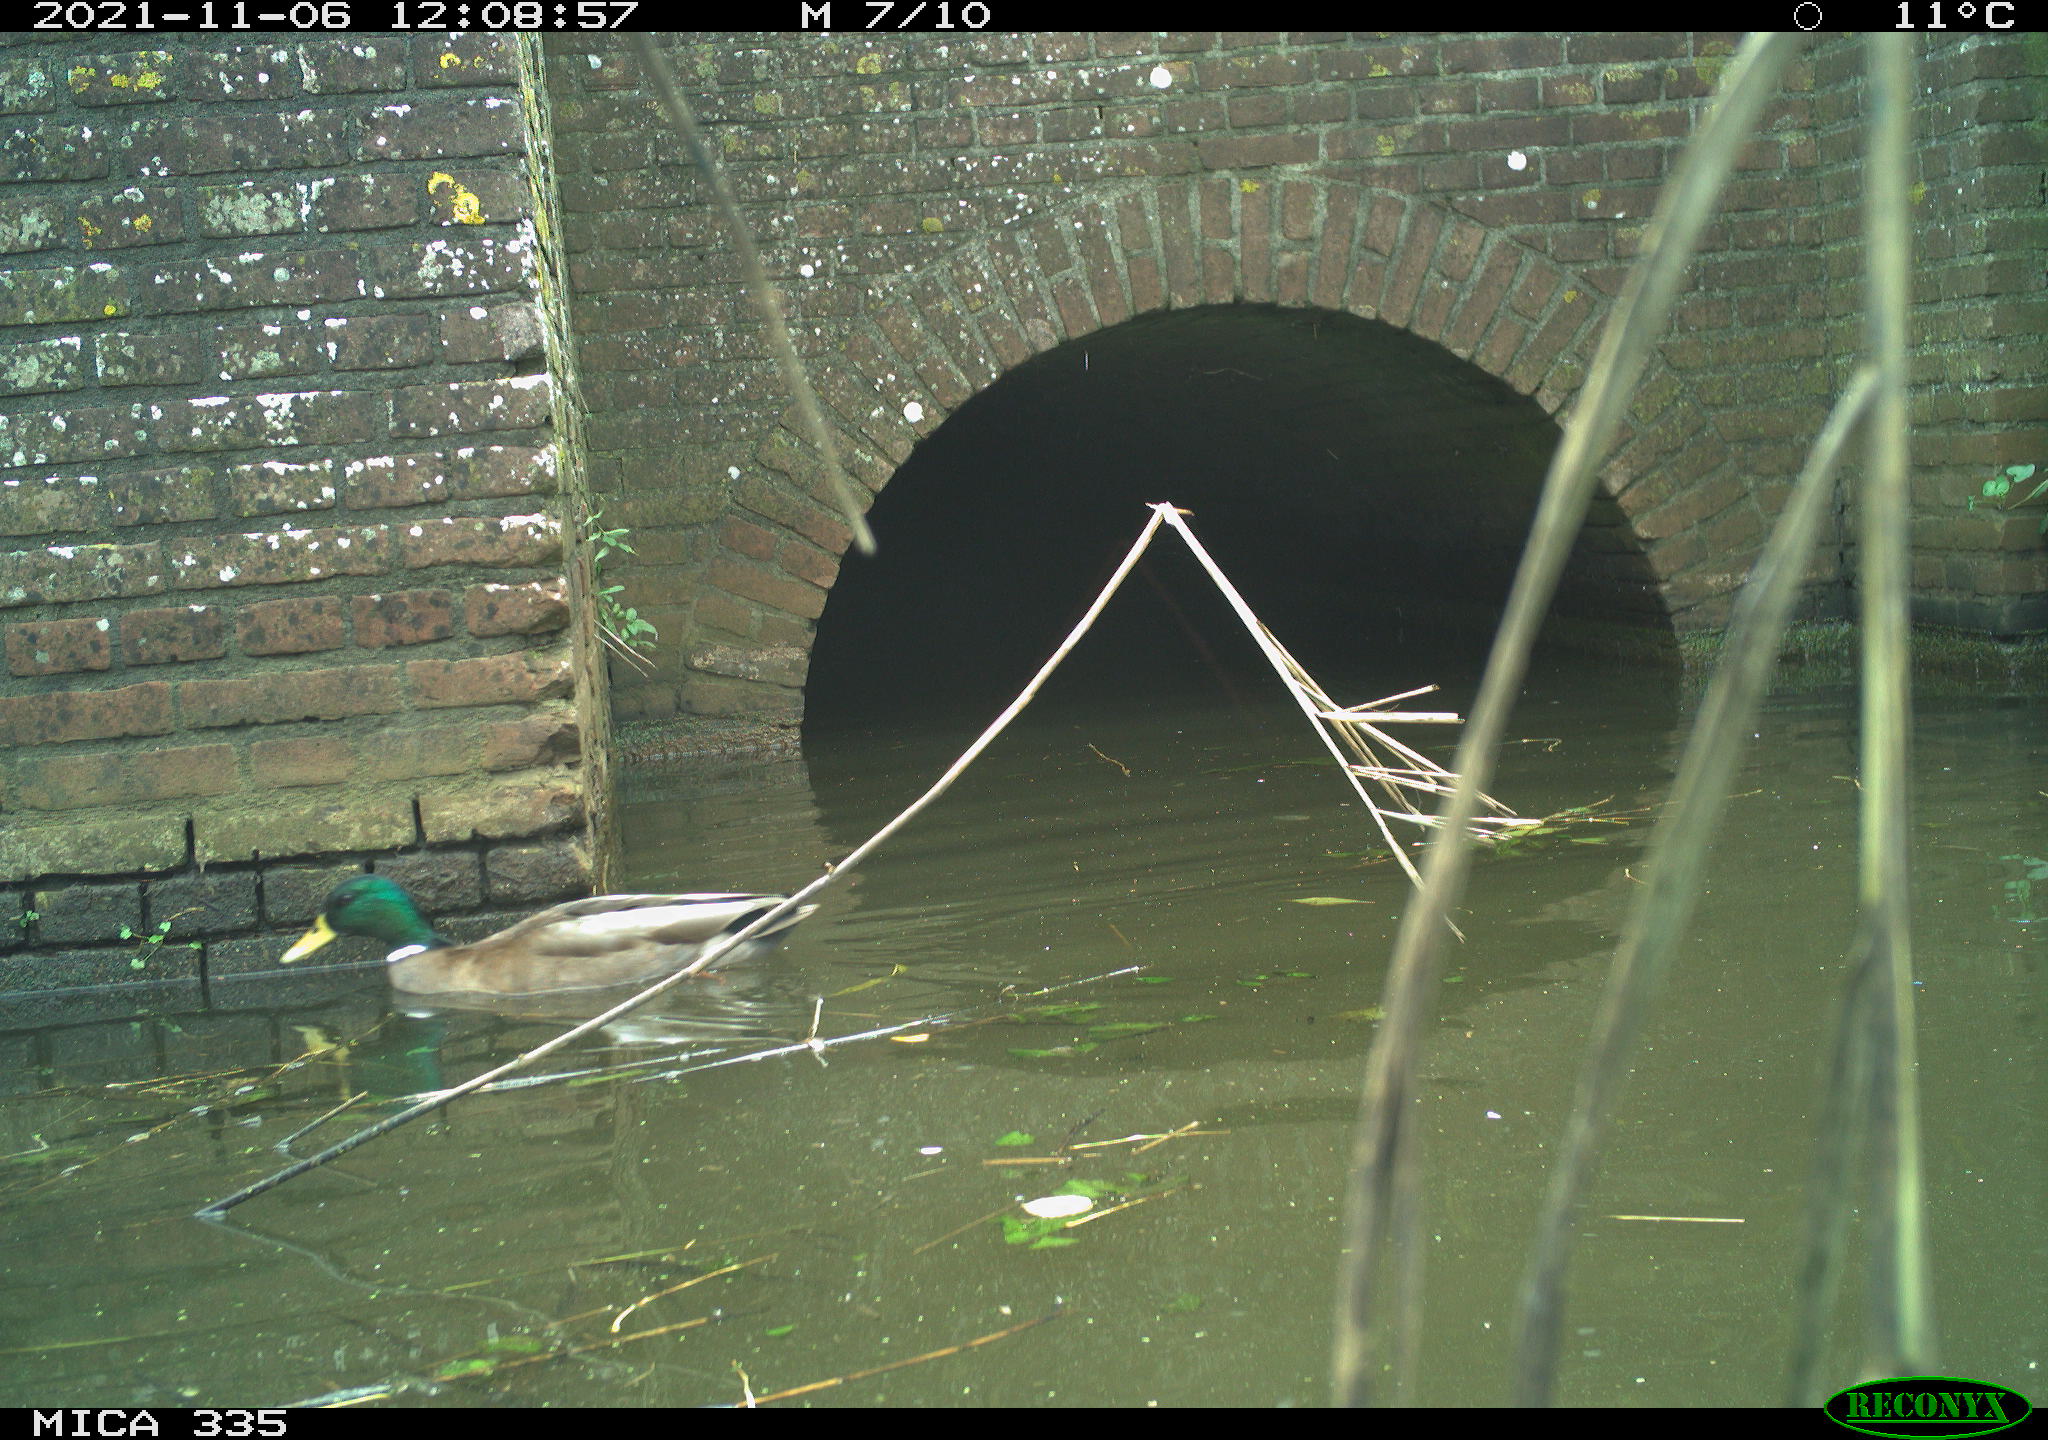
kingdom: Animalia
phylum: Chordata
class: Aves
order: Anseriformes
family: Anatidae
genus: Anas
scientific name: Anas platyrhynchos
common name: Mallard
